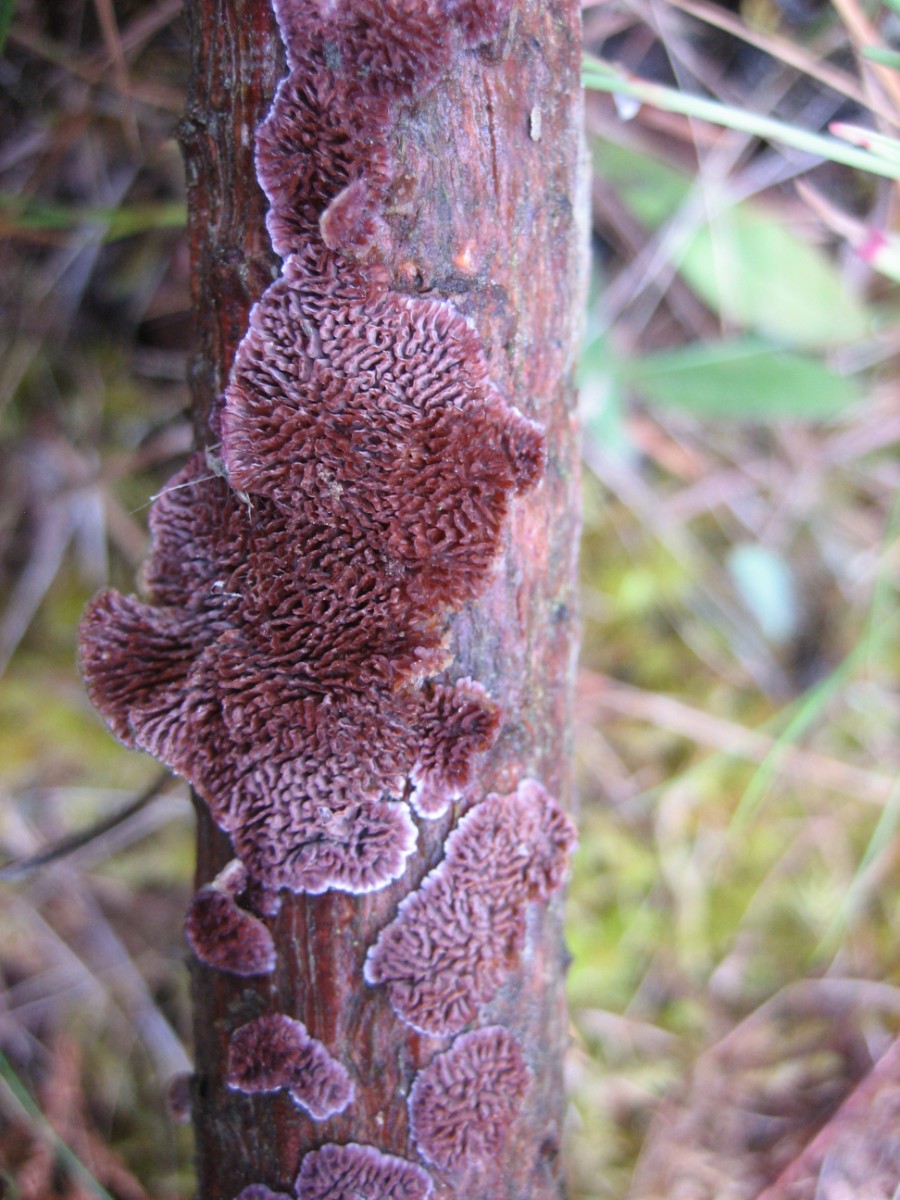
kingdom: Fungi
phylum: Basidiomycota
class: Agaricomycetes
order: Hymenochaetales
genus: Trichaptum
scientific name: Trichaptum abietinum
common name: almindelig violporesvamp
